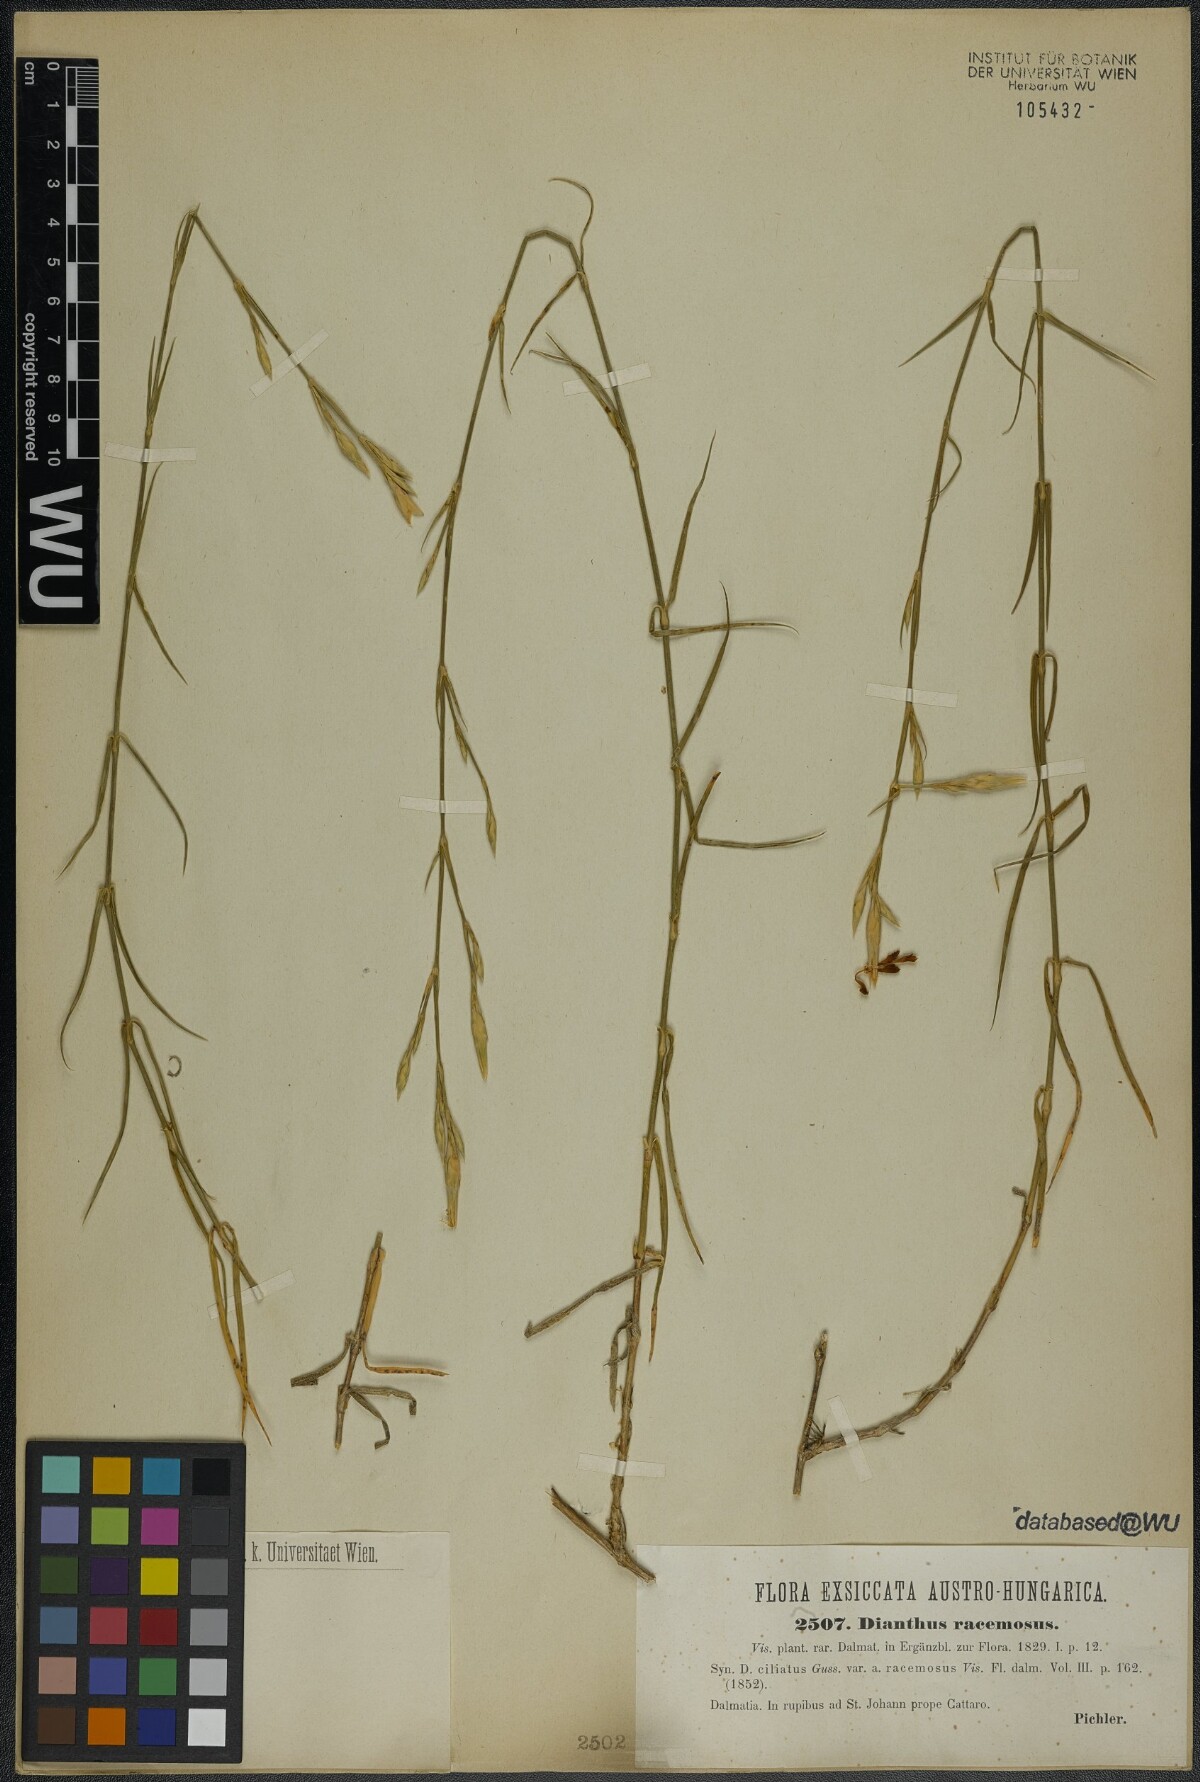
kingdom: Plantae
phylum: Tracheophyta
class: Magnoliopsida
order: Caryophyllales
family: Caryophyllaceae
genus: Dianthus
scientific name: Dianthus ciliatus
